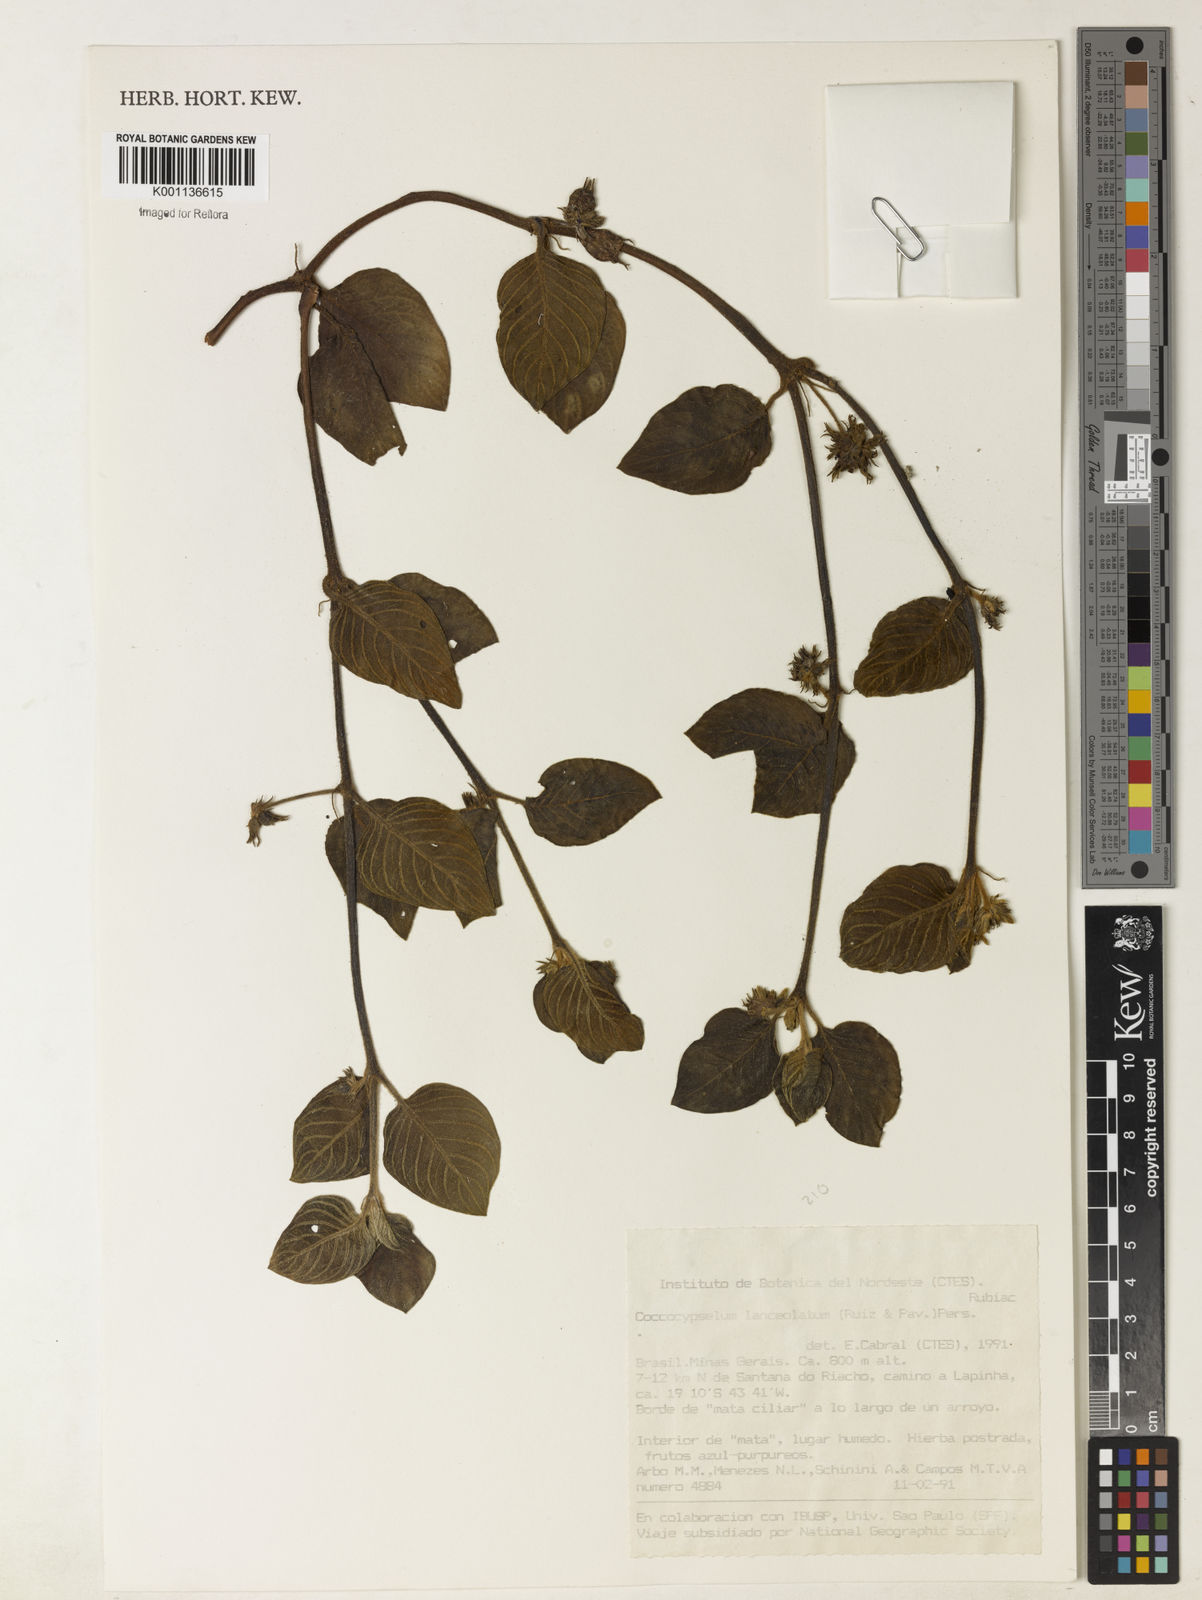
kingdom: Plantae
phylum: Tracheophyta
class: Magnoliopsida
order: Gentianales
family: Rubiaceae
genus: Coccocypselum
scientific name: Coccocypselum lanceolatum
